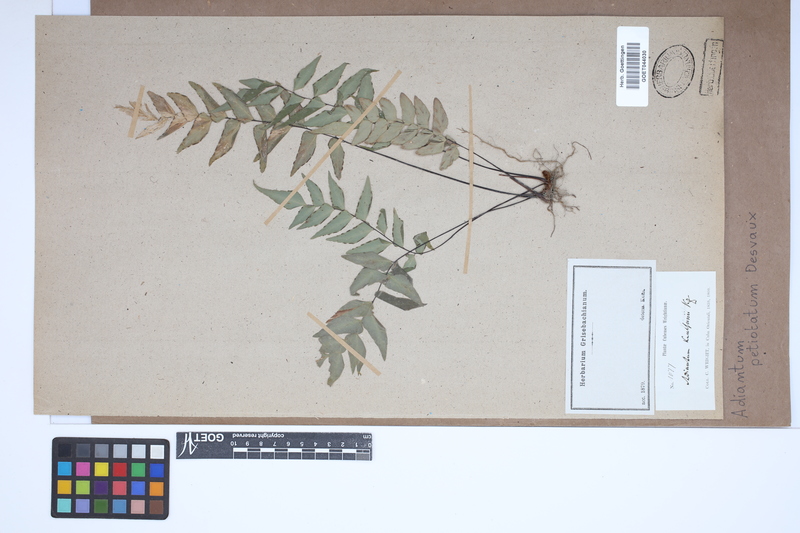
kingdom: Plantae
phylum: Tracheophyta
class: Polypodiopsida
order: Polypodiales
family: Pteridaceae
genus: Adiantum
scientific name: Adiantum petiolatum
